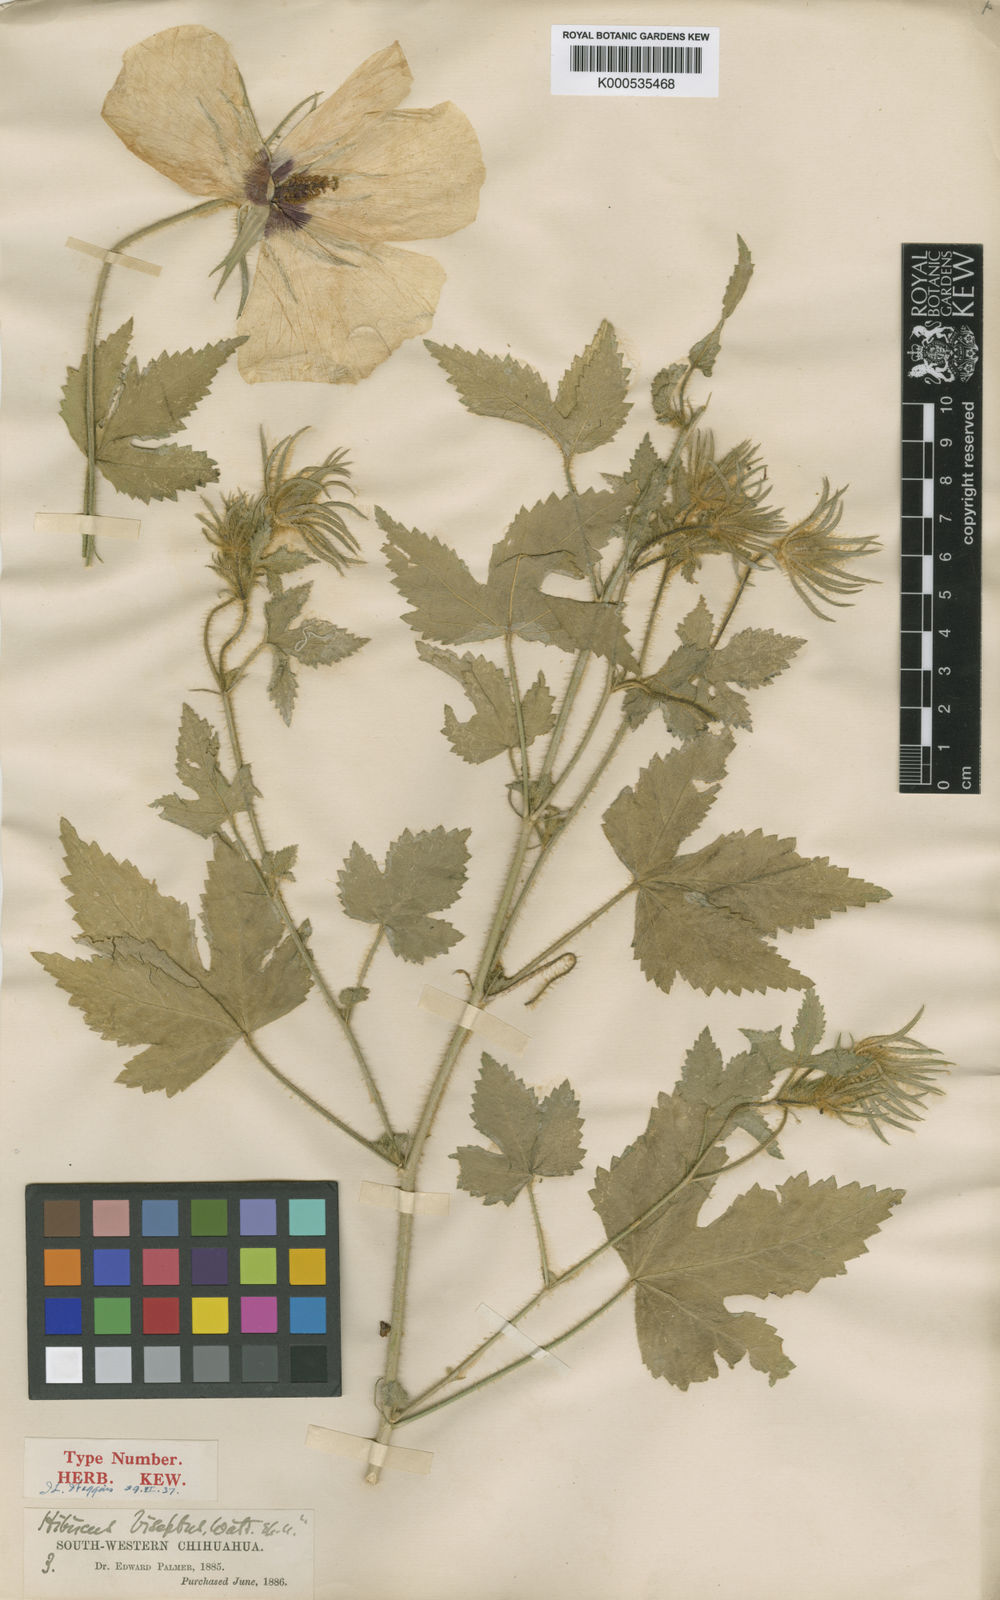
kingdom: Plantae
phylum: Tracheophyta
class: Magnoliopsida
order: Malvales
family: Malvaceae
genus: Hibiscus
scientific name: Hibiscus biseptus
